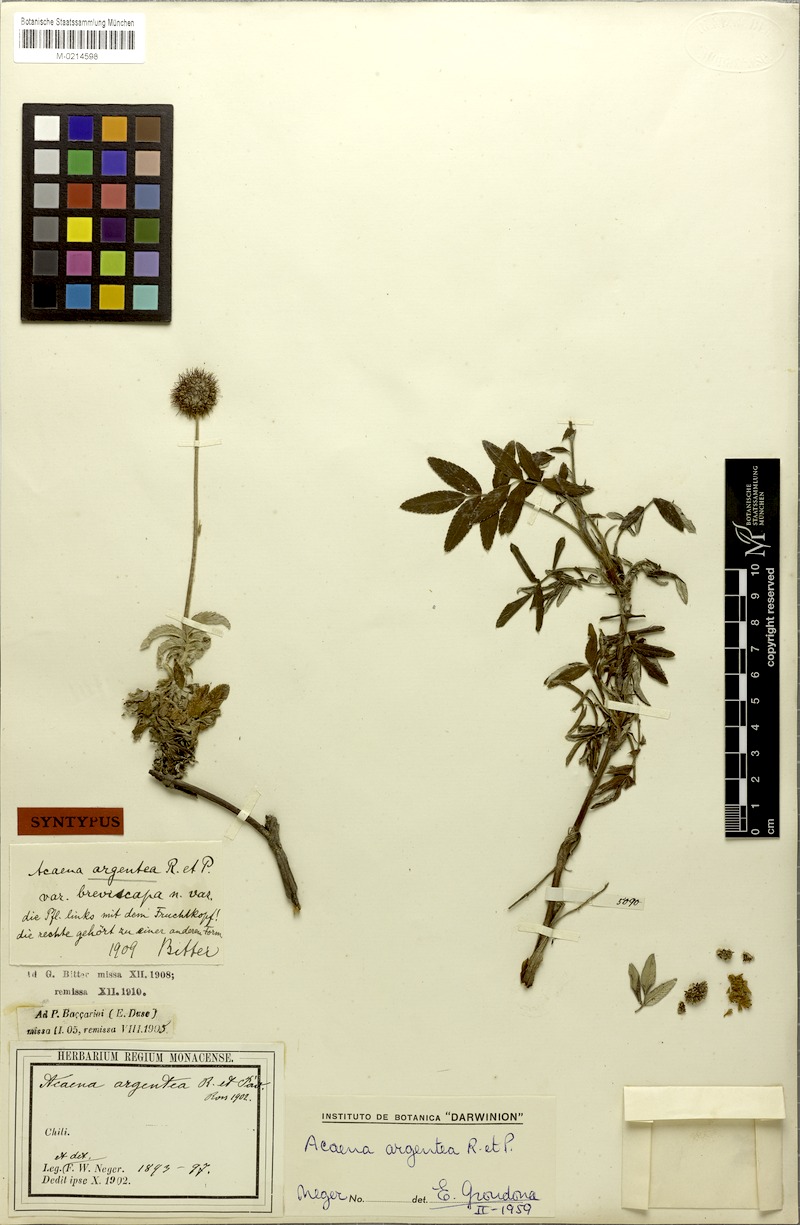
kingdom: Plantae
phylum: Tracheophyta
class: Magnoliopsida
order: Rosales
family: Rosaceae
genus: Acaena
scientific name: Acaena argentea
